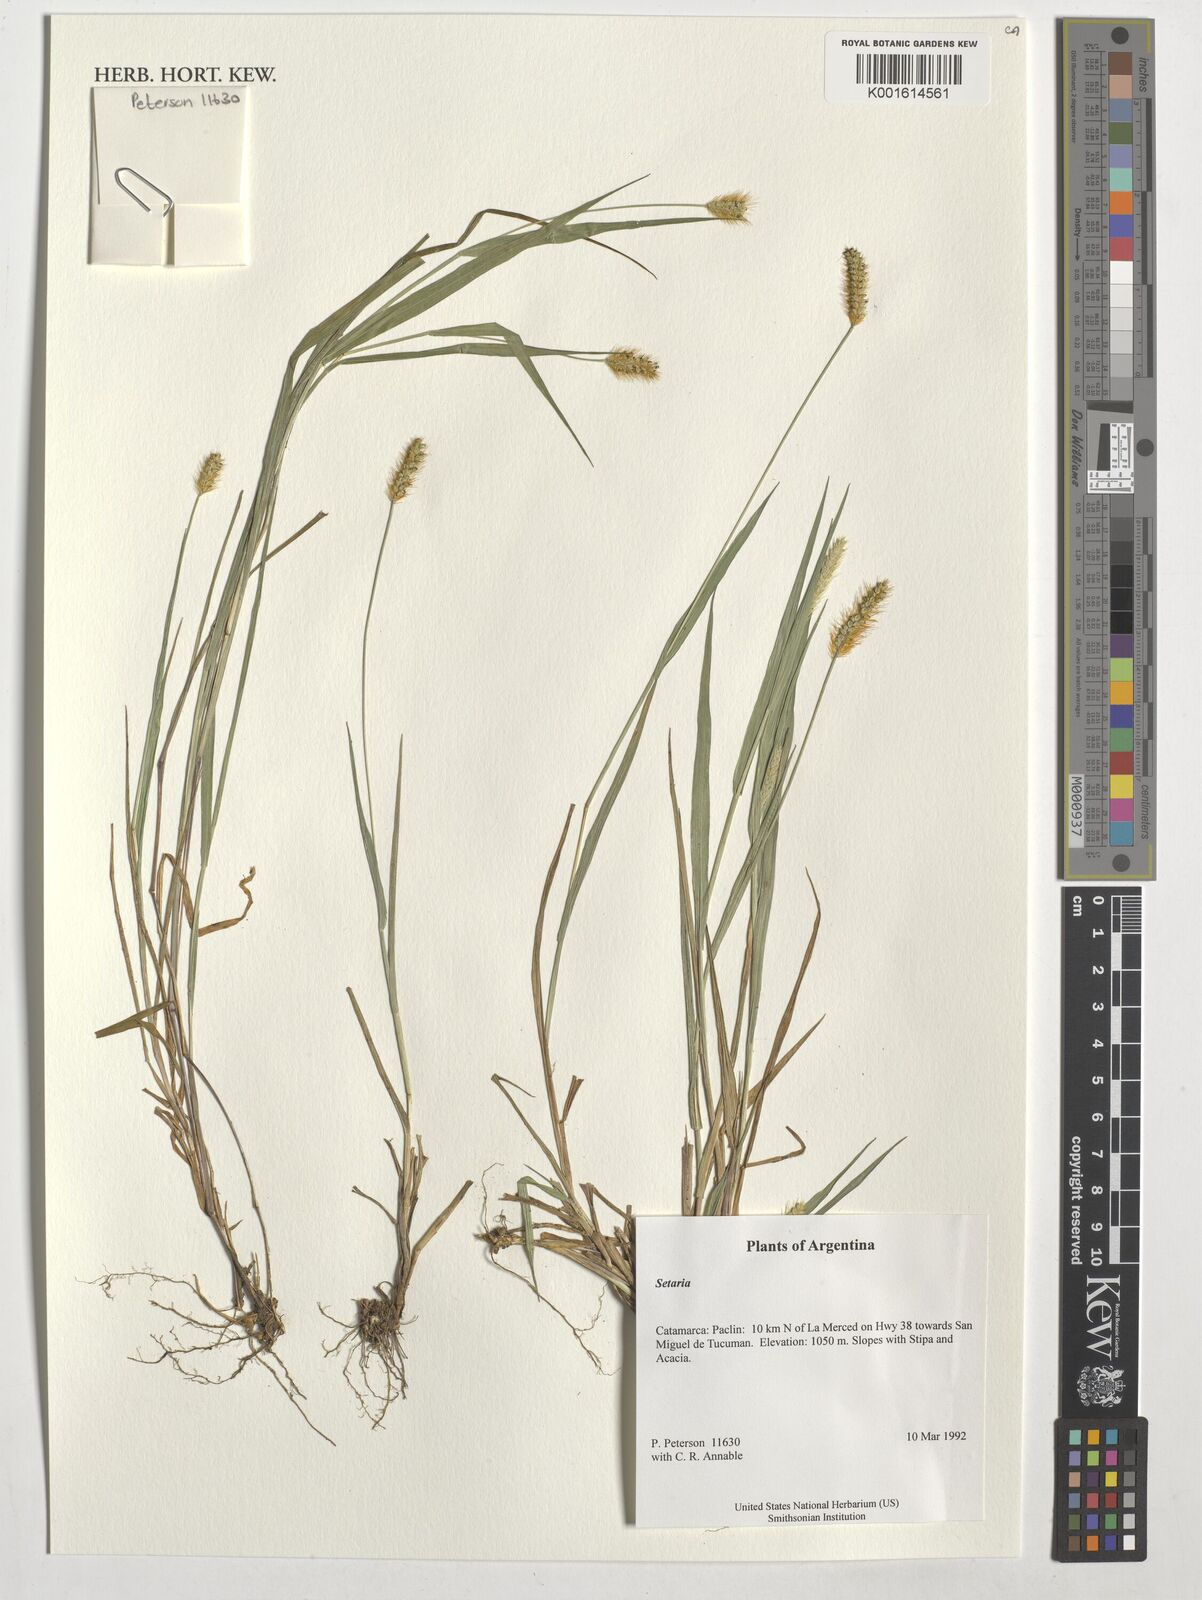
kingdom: Plantae
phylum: Tracheophyta
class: Liliopsida
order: Poales
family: Poaceae
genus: Setaria
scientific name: Setaria
